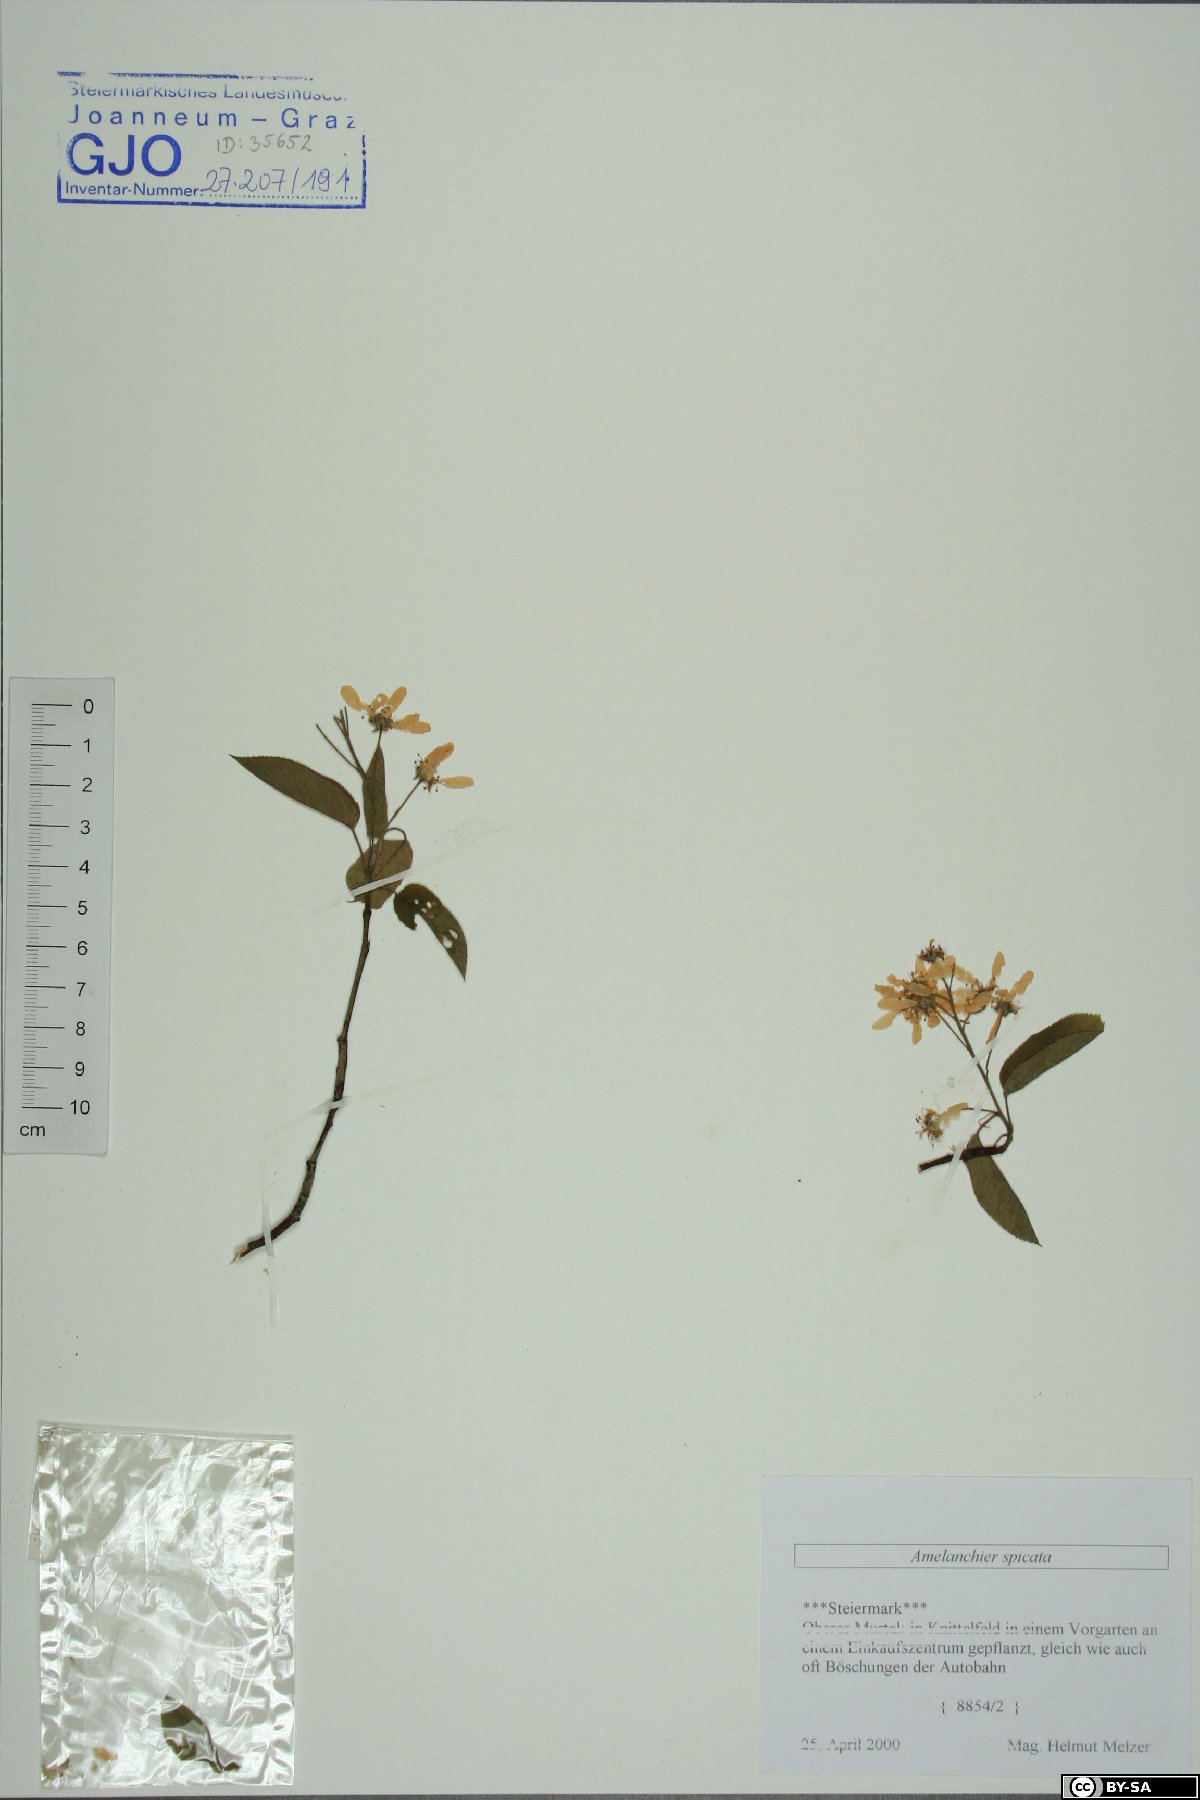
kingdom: Plantae
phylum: Tracheophyta
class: Magnoliopsida
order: Rosales
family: Rosaceae
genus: Amelanchier
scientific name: Amelanchier humilis
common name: Low juneberry
